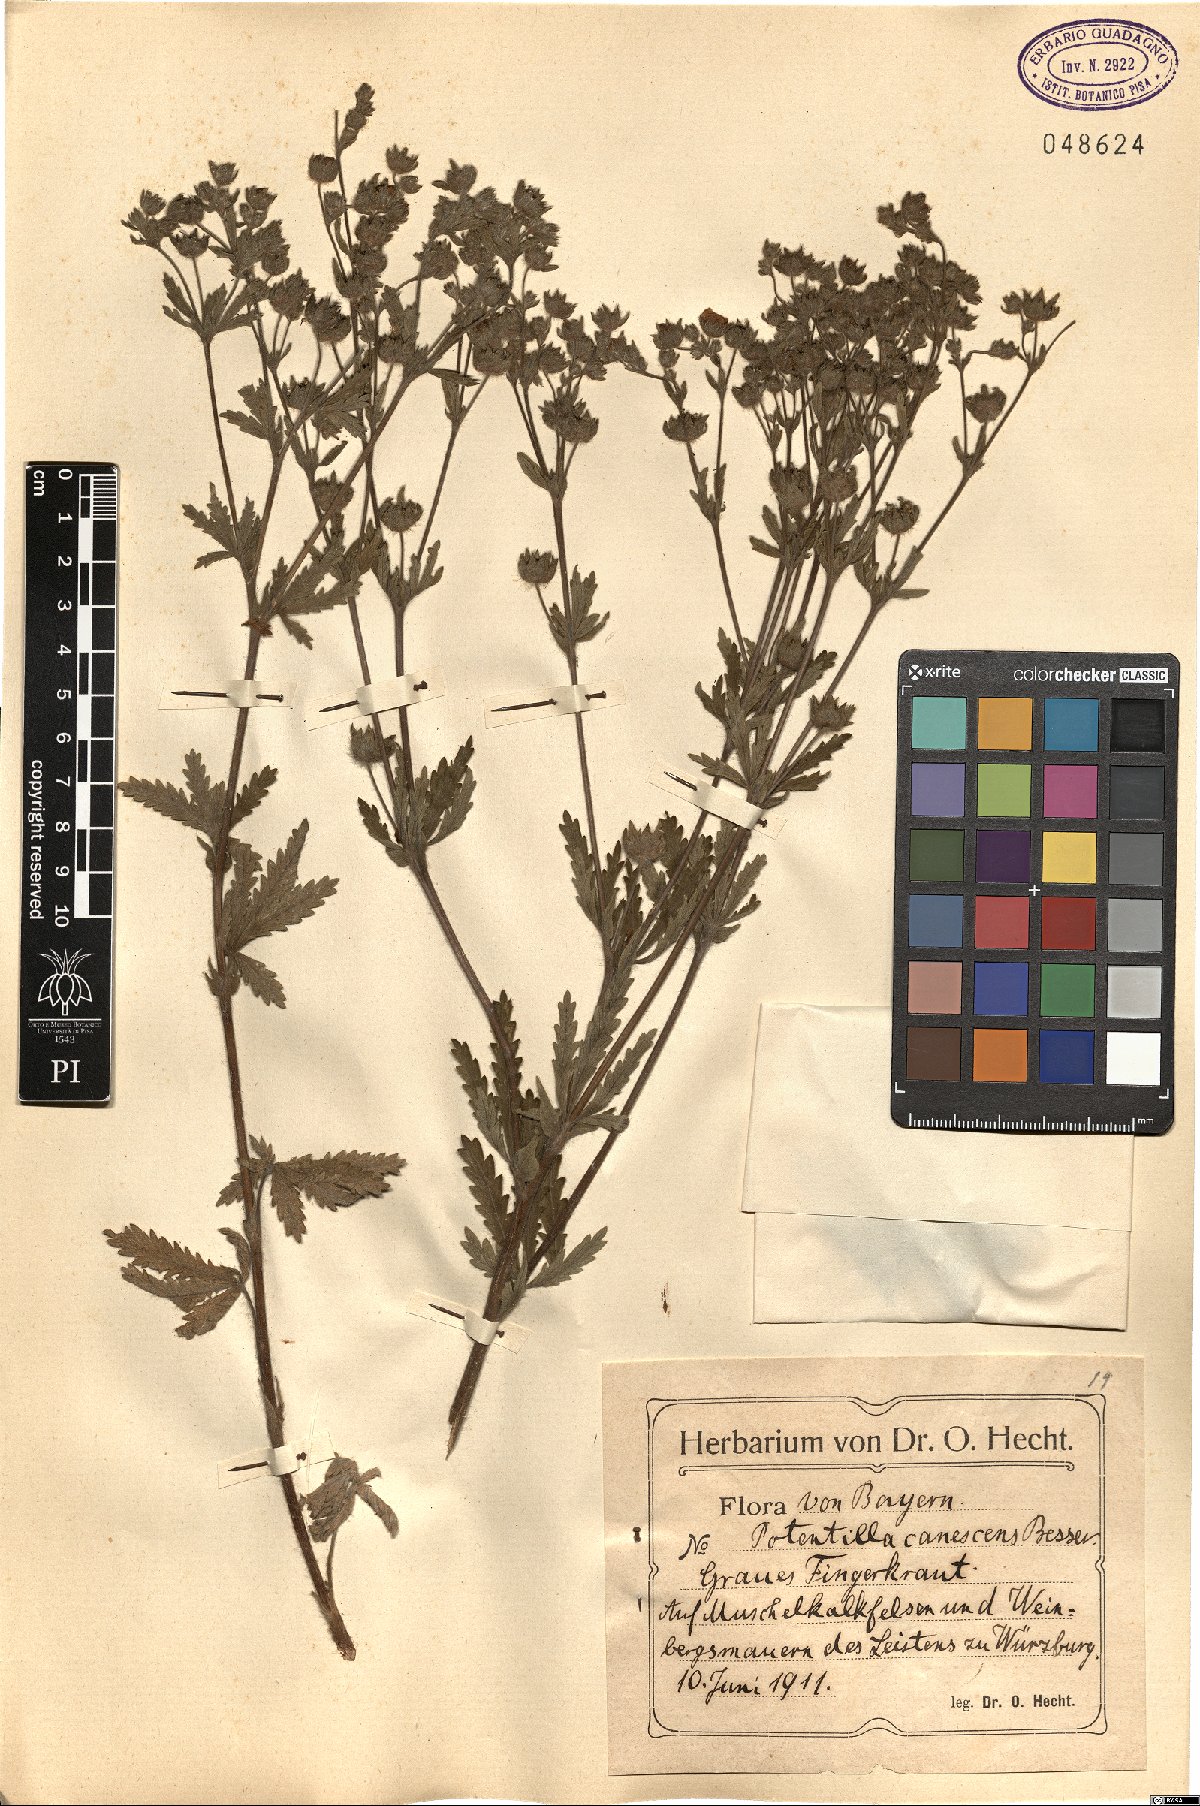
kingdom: Plantae
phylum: Tracheophyta
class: Magnoliopsida
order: Rosales
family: Rosaceae
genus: Potentilla
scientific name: Potentilla inclinata
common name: Grey cinquefoil
